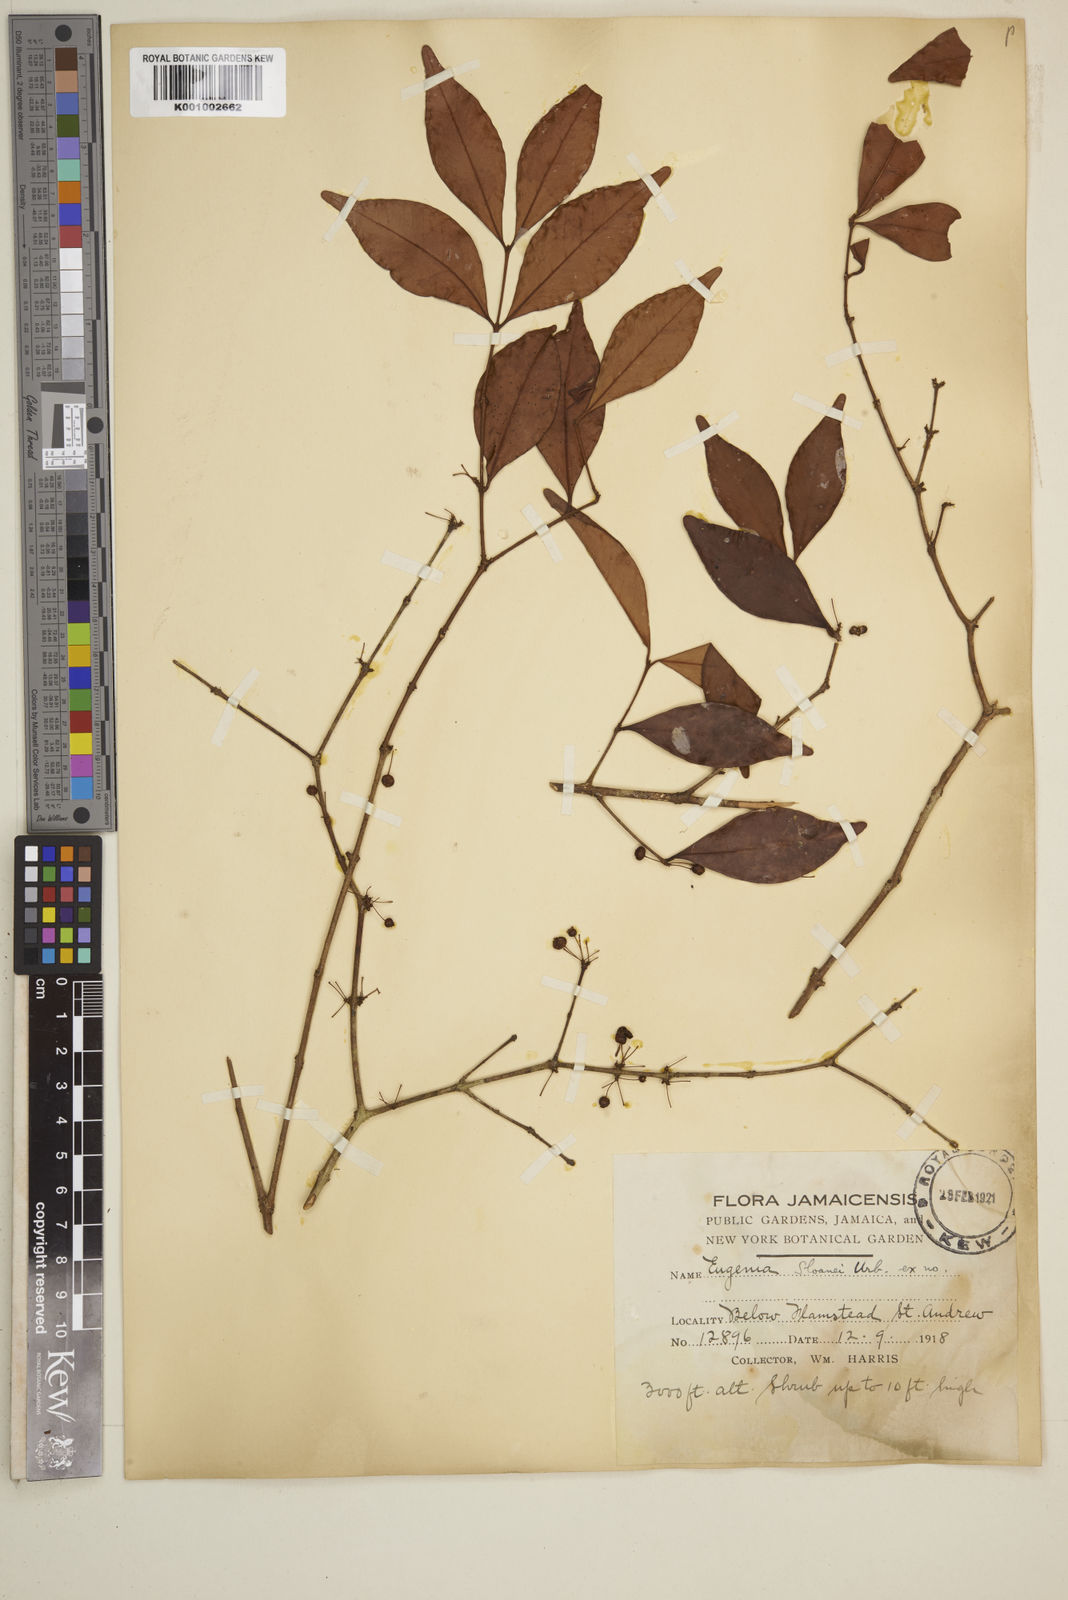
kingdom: Plantae
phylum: Tracheophyta
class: Magnoliopsida
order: Myrtales
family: Myrtaceae
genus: Eugenia
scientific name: Eugenia
